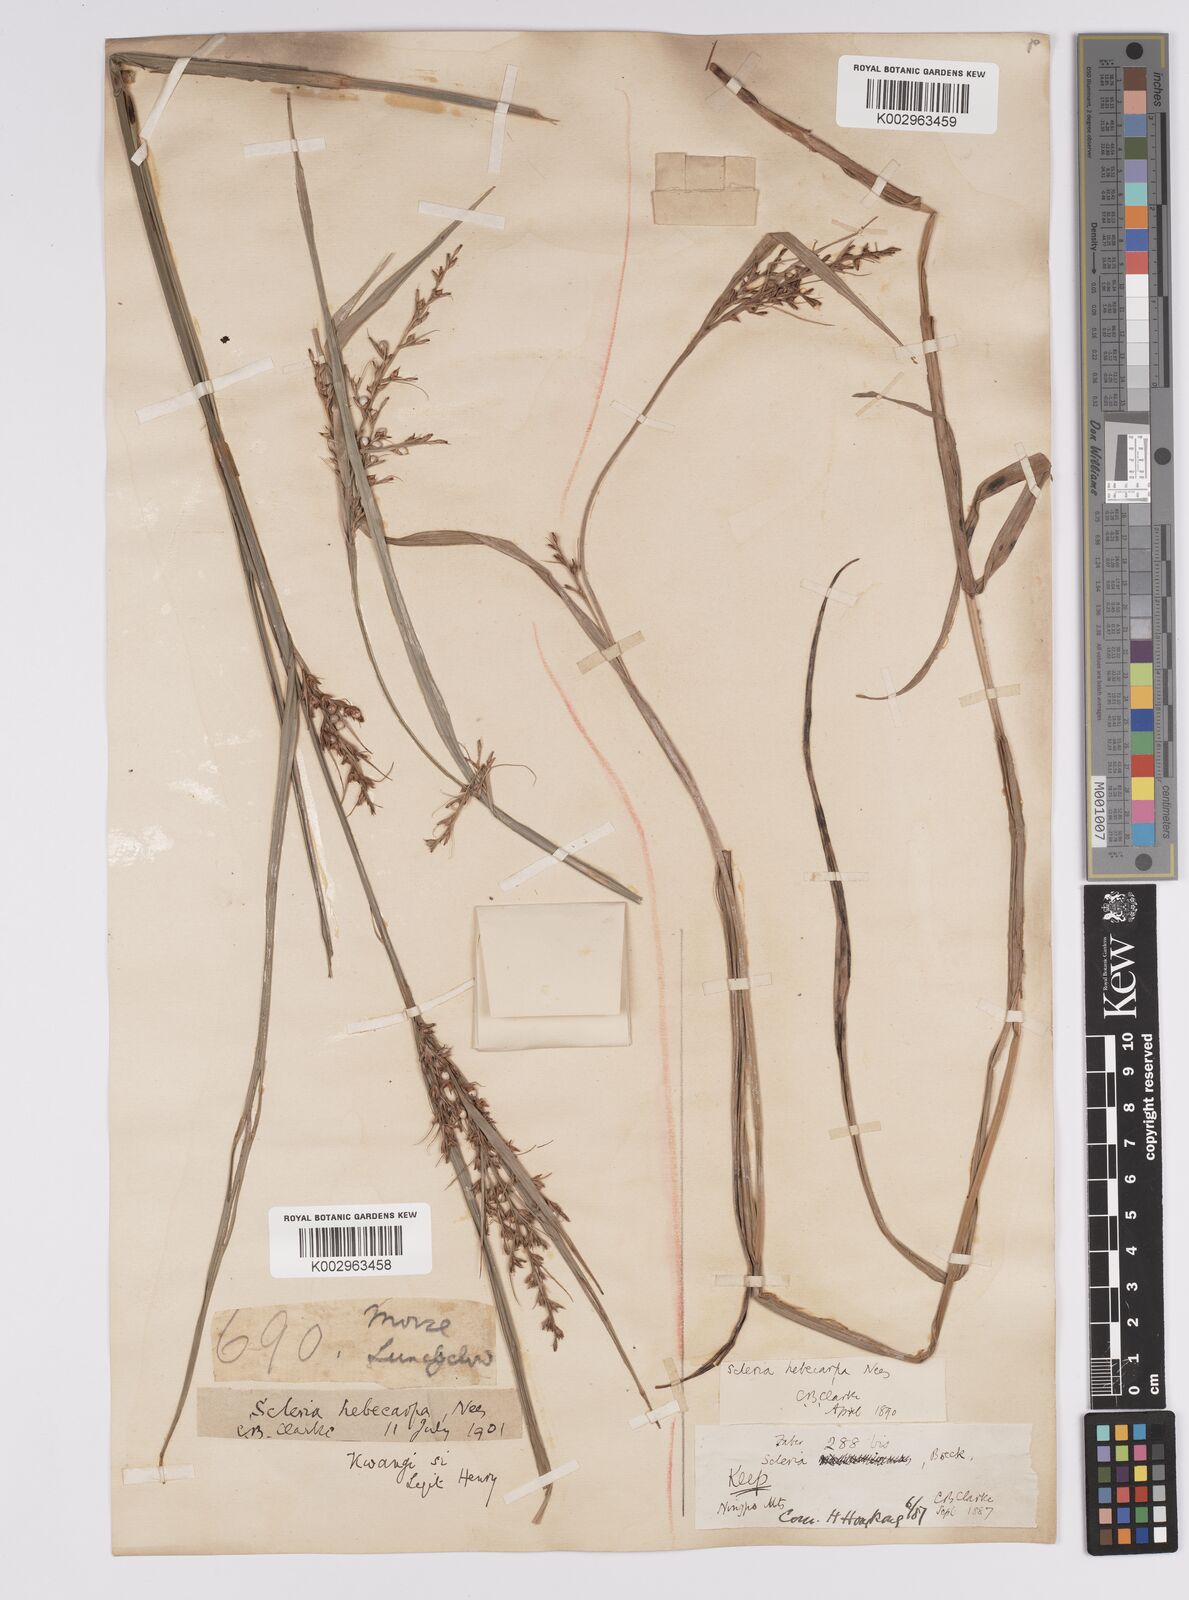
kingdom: Plantae
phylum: Tracheophyta
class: Liliopsida
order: Poales
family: Cyperaceae
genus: Scleria
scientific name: Scleria levis
